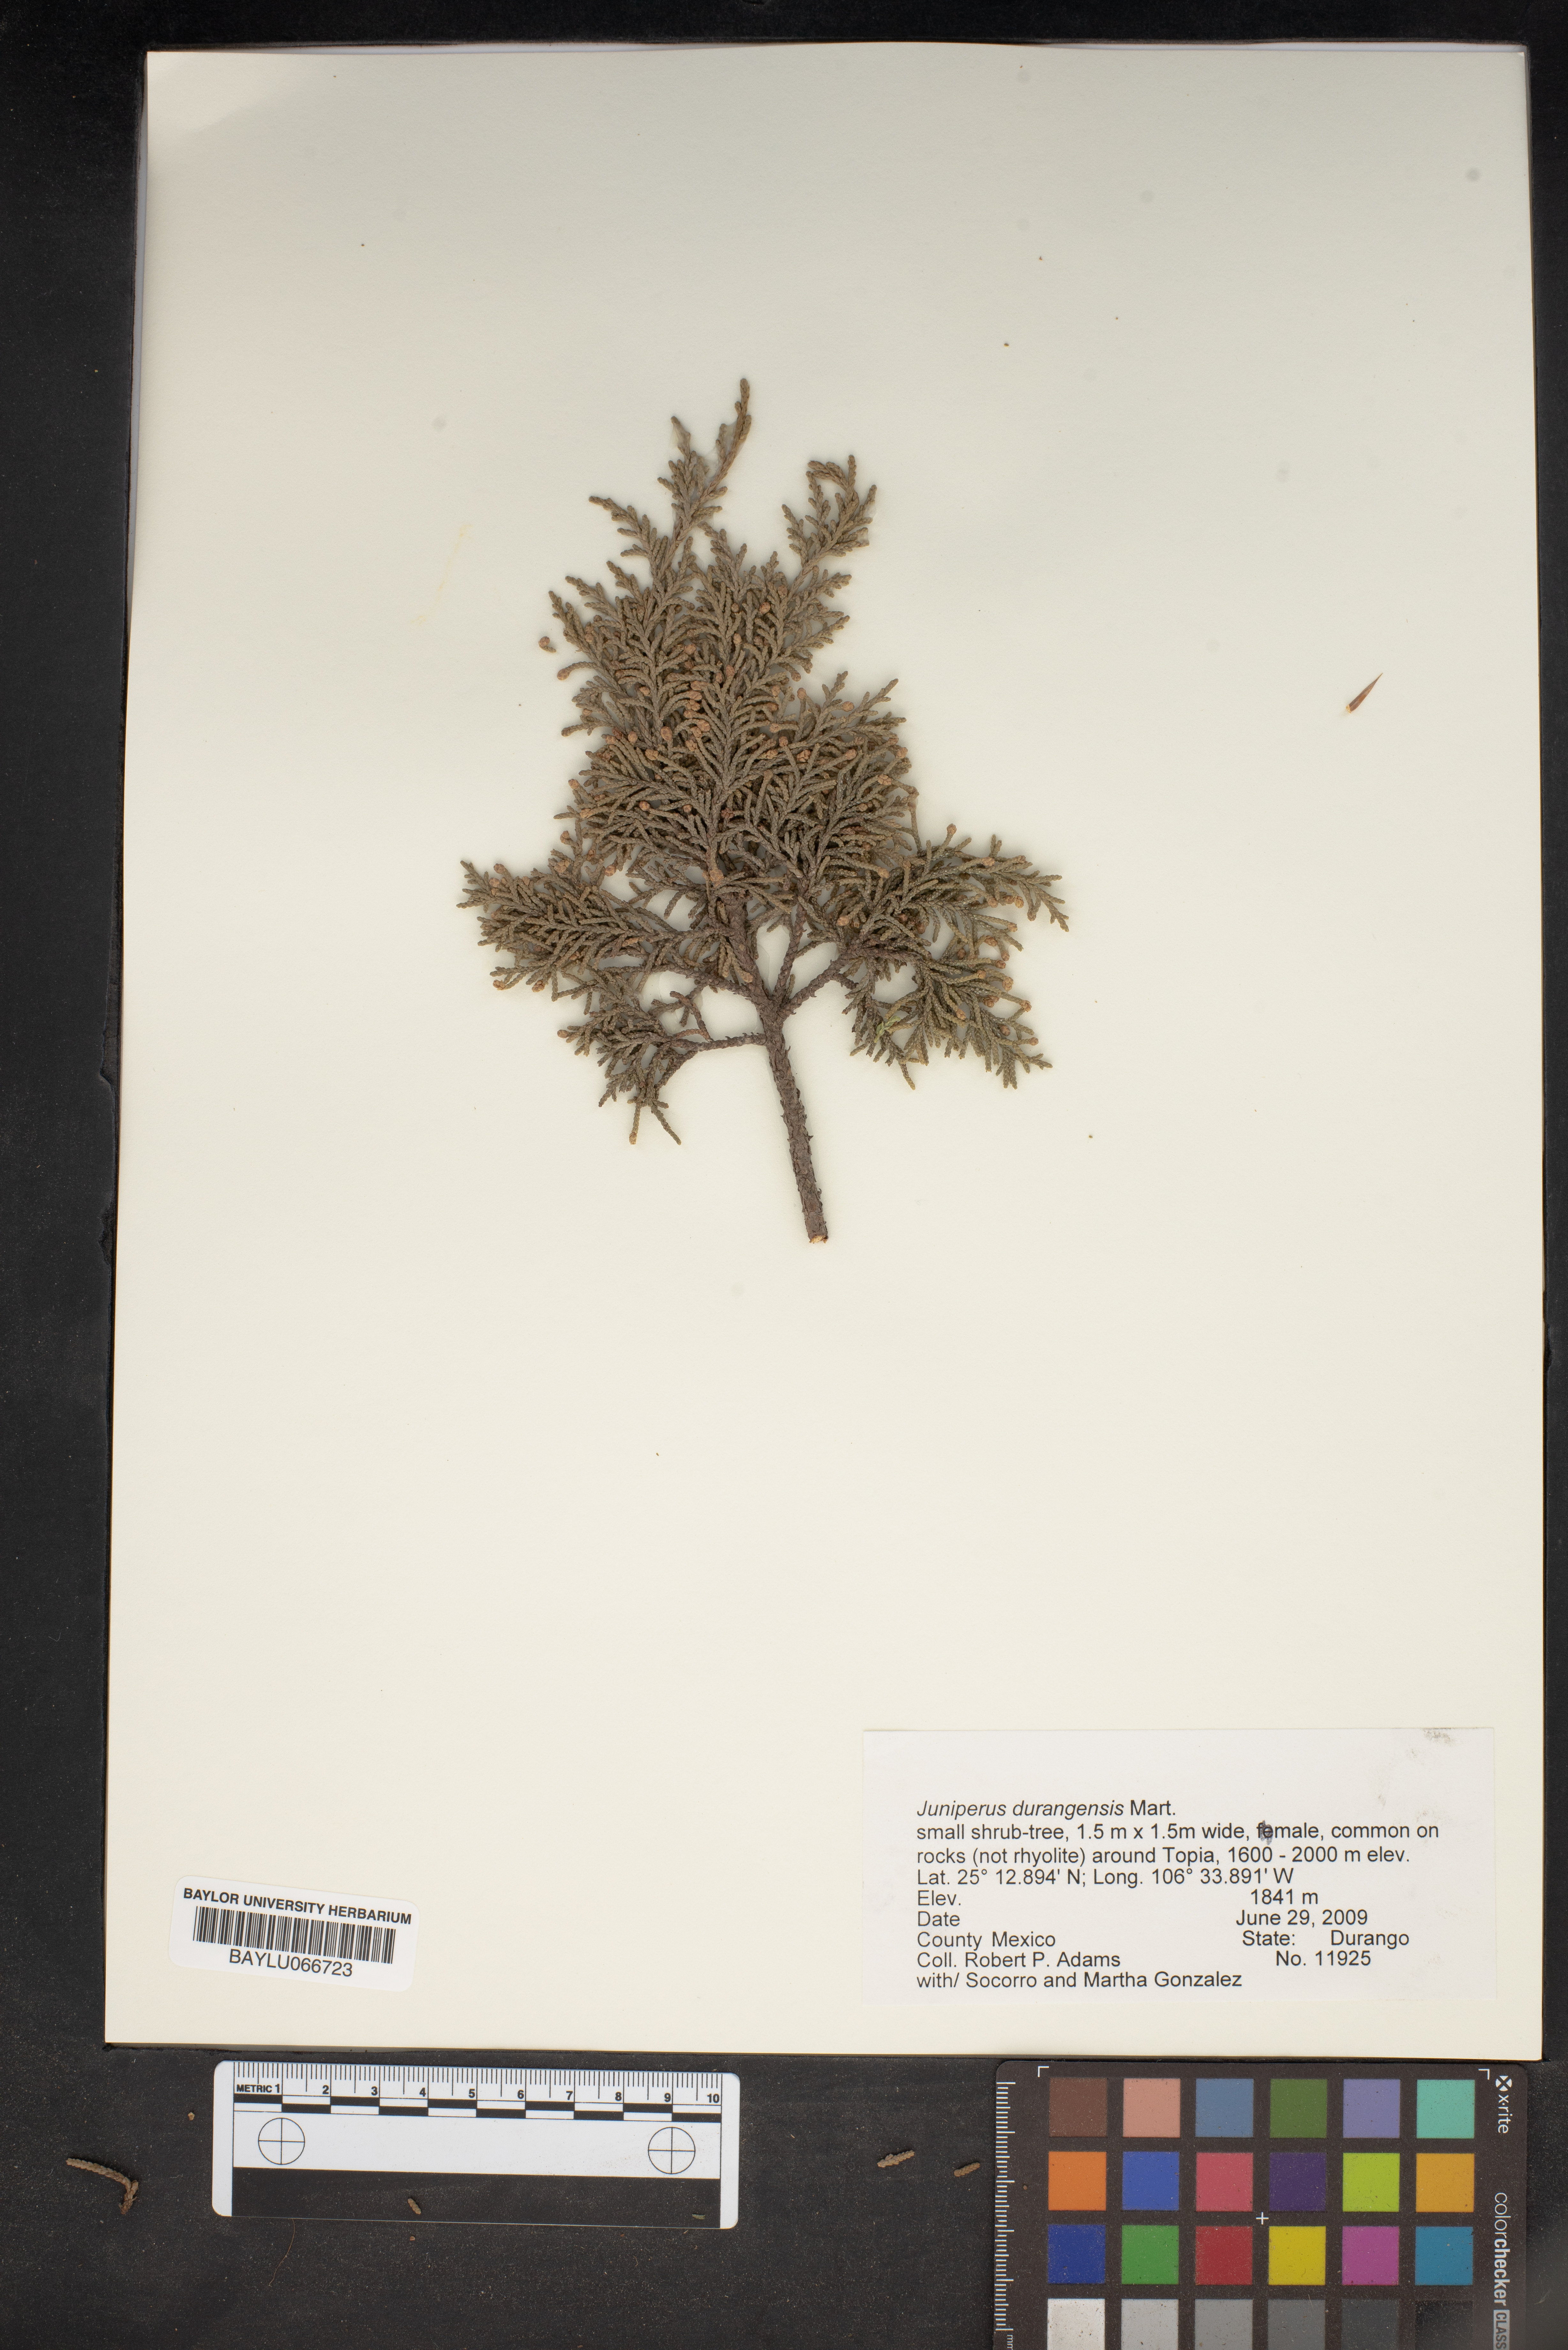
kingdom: Plantae
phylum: Tracheophyta
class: Pinopsida
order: Pinales
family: Cupressaceae
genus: Juniperus
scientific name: Juniperus durangensis
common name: Durango juniper
